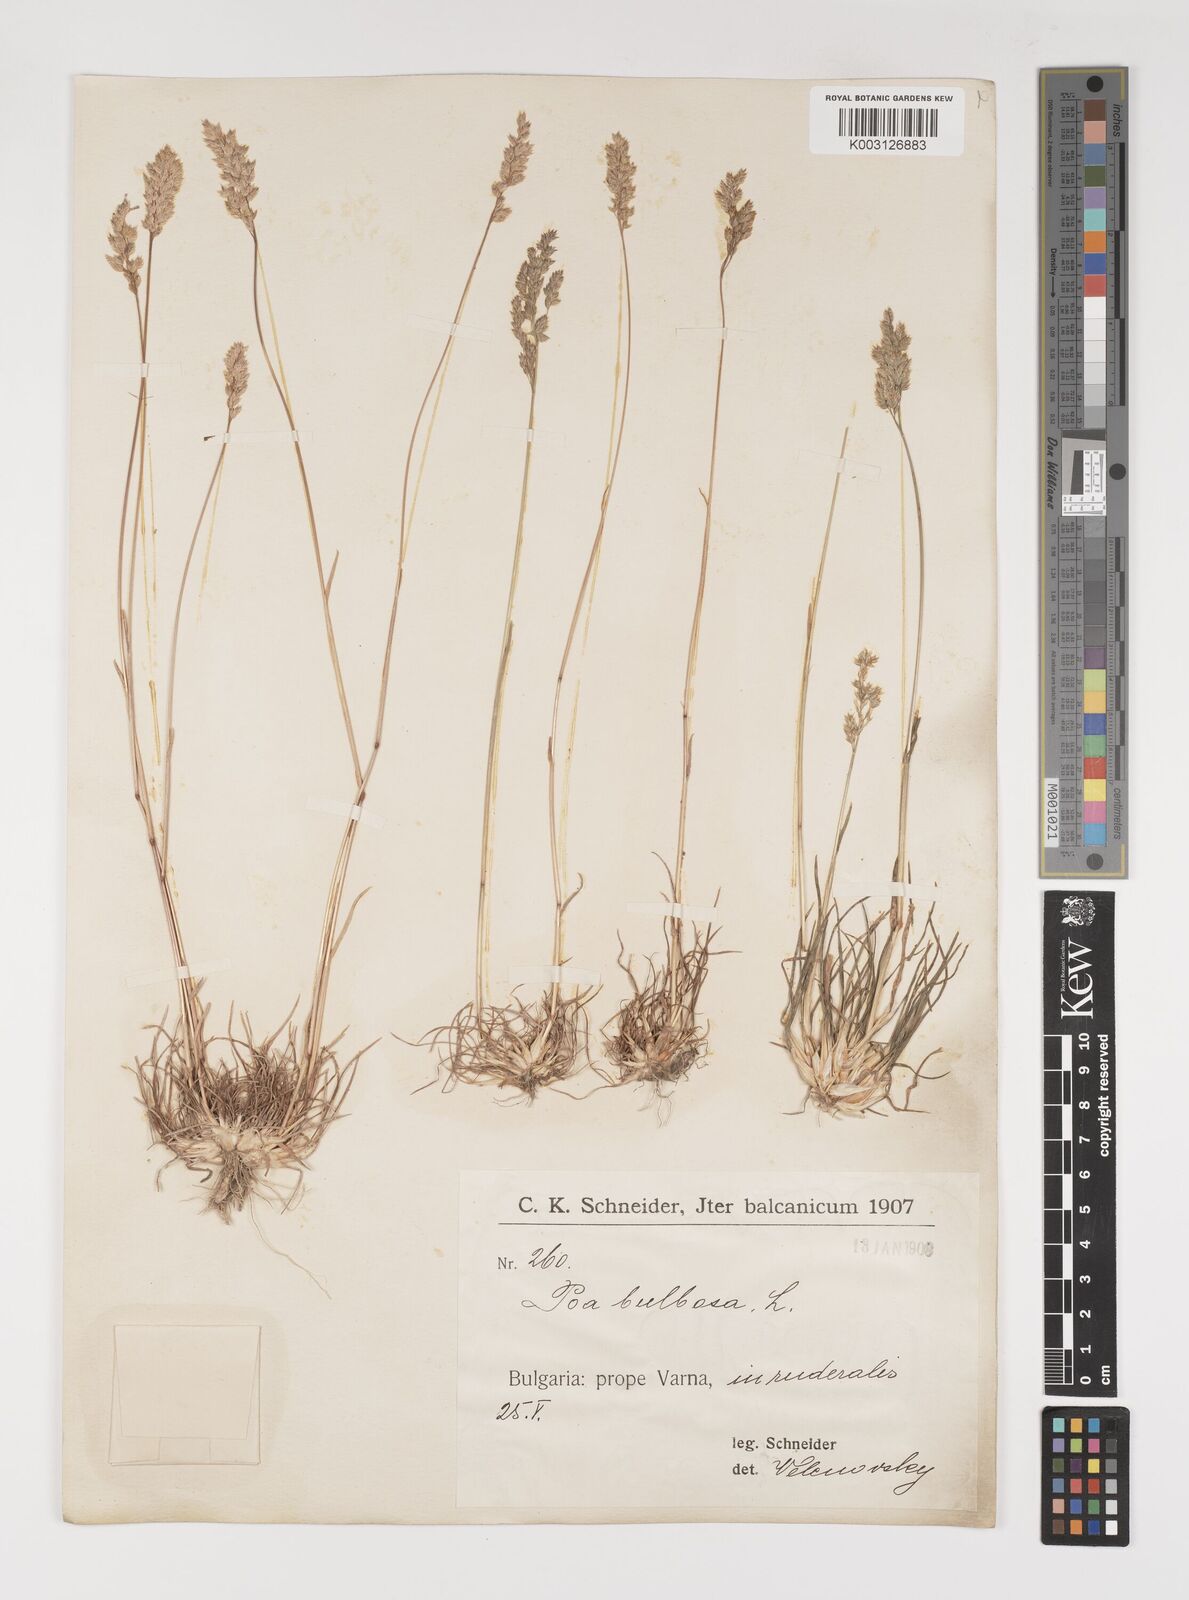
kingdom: Plantae
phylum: Tracheophyta
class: Liliopsida
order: Poales
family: Poaceae
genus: Poa
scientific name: Poa bulbosa
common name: Bulbous bluegrass
